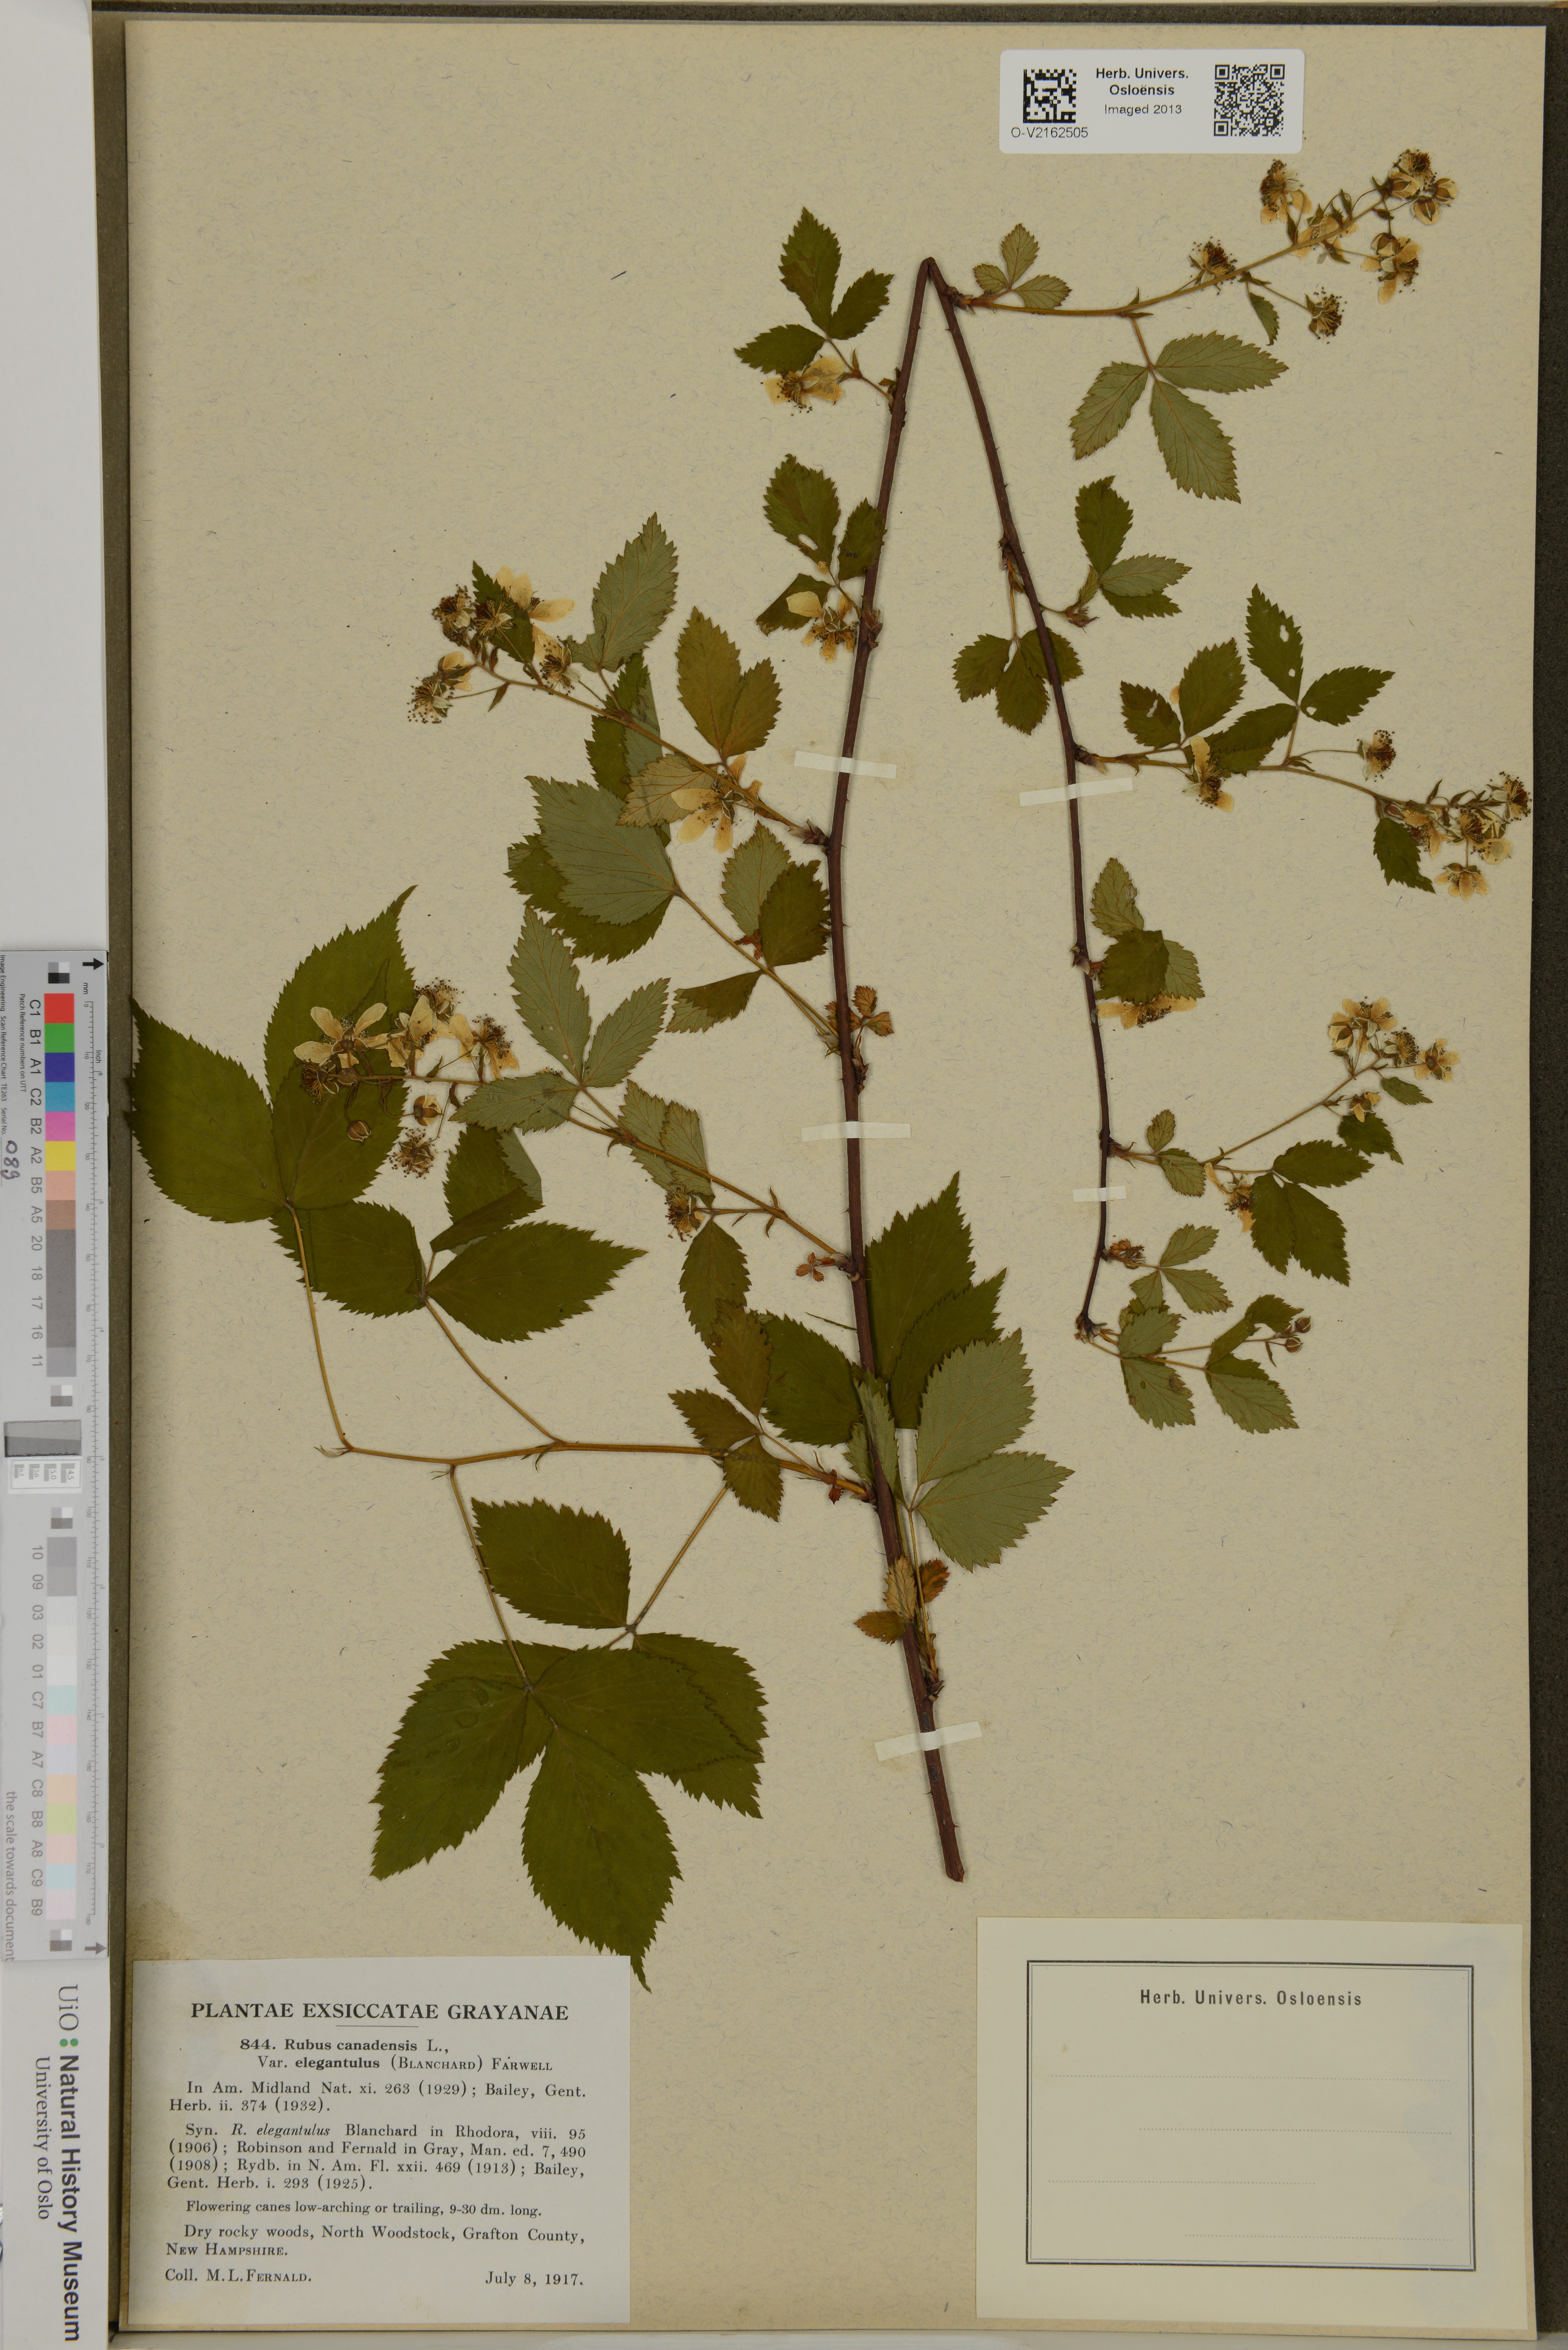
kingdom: Plantae
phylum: Tracheophyta
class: Magnoliopsida
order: Rosales
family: Rosaceae
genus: Rubus
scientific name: Rubus canadensis
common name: Smooth blackberry
